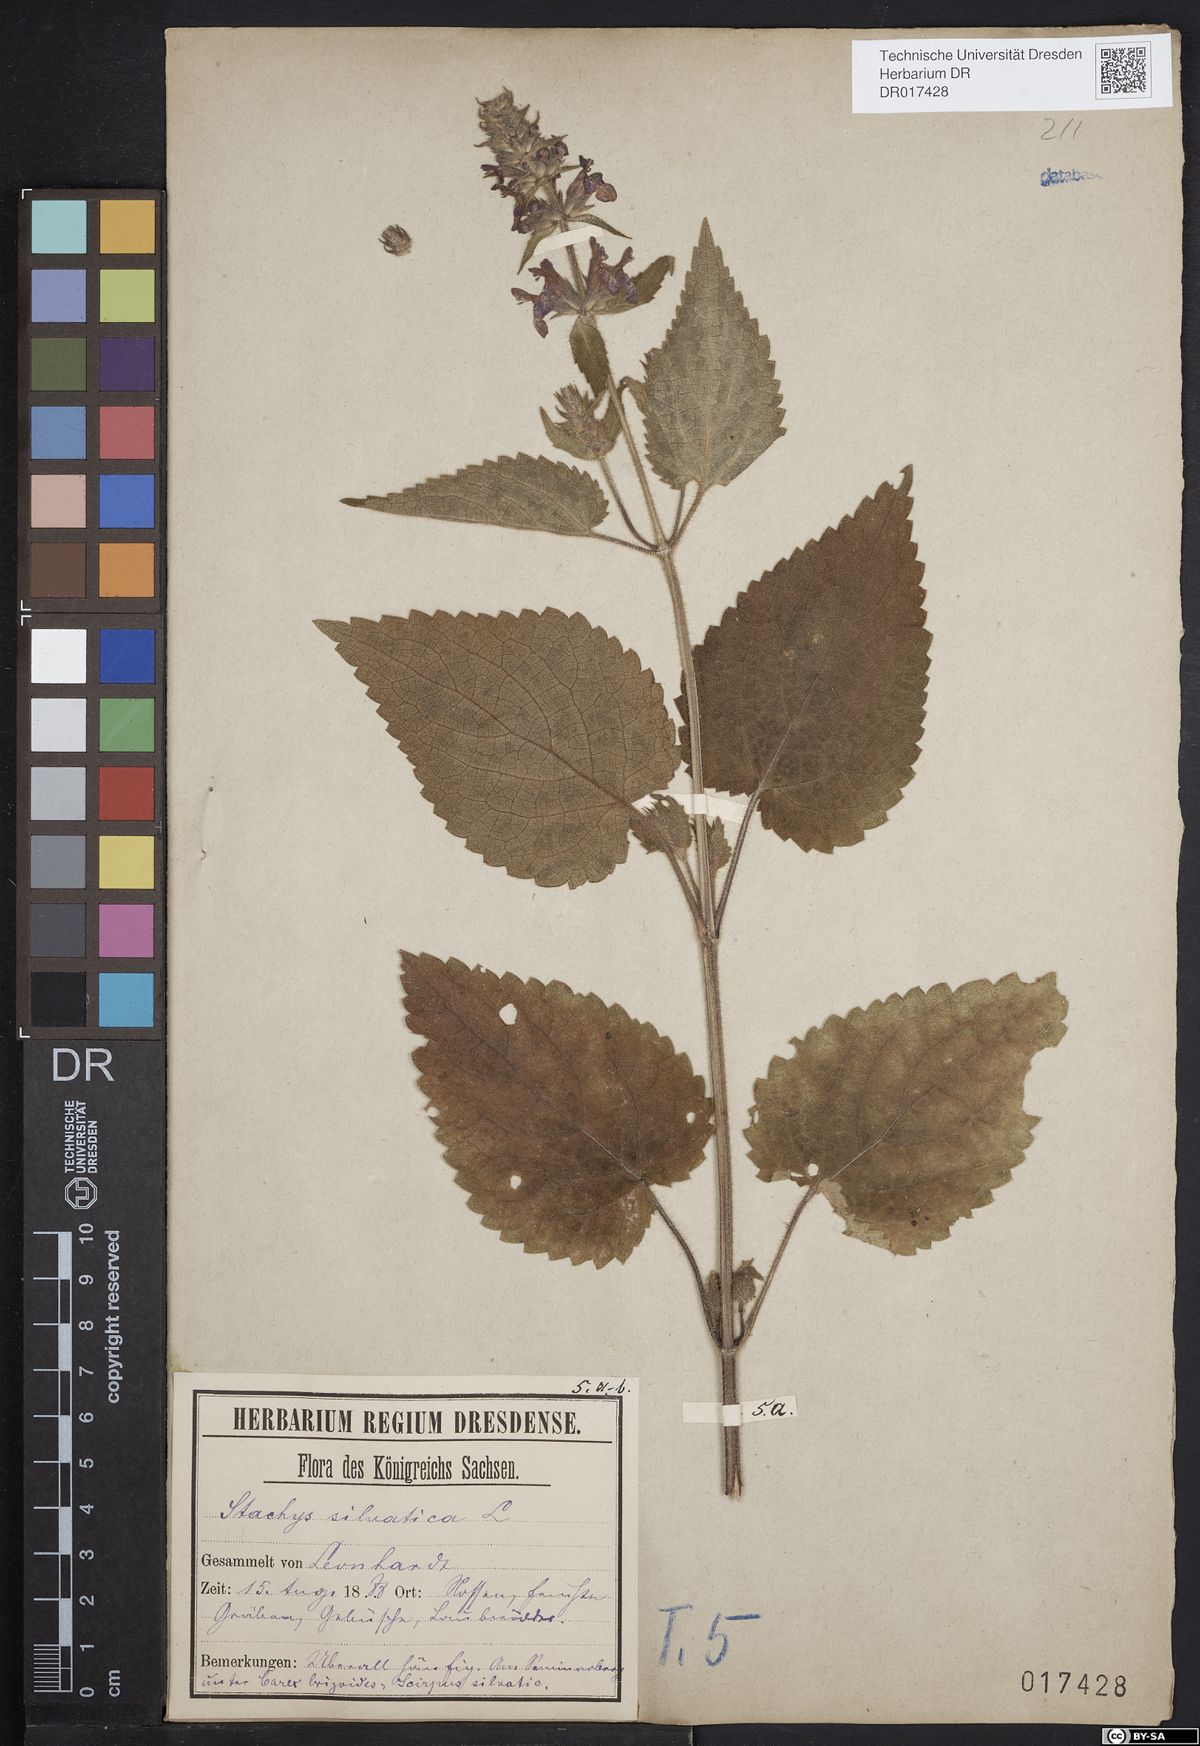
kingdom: Plantae
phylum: Tracheophyta
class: Magnoliopsida
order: Lamiales
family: Lamiaceae
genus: Stachys
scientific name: Stachys sylvatica
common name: Hedge woundwort
